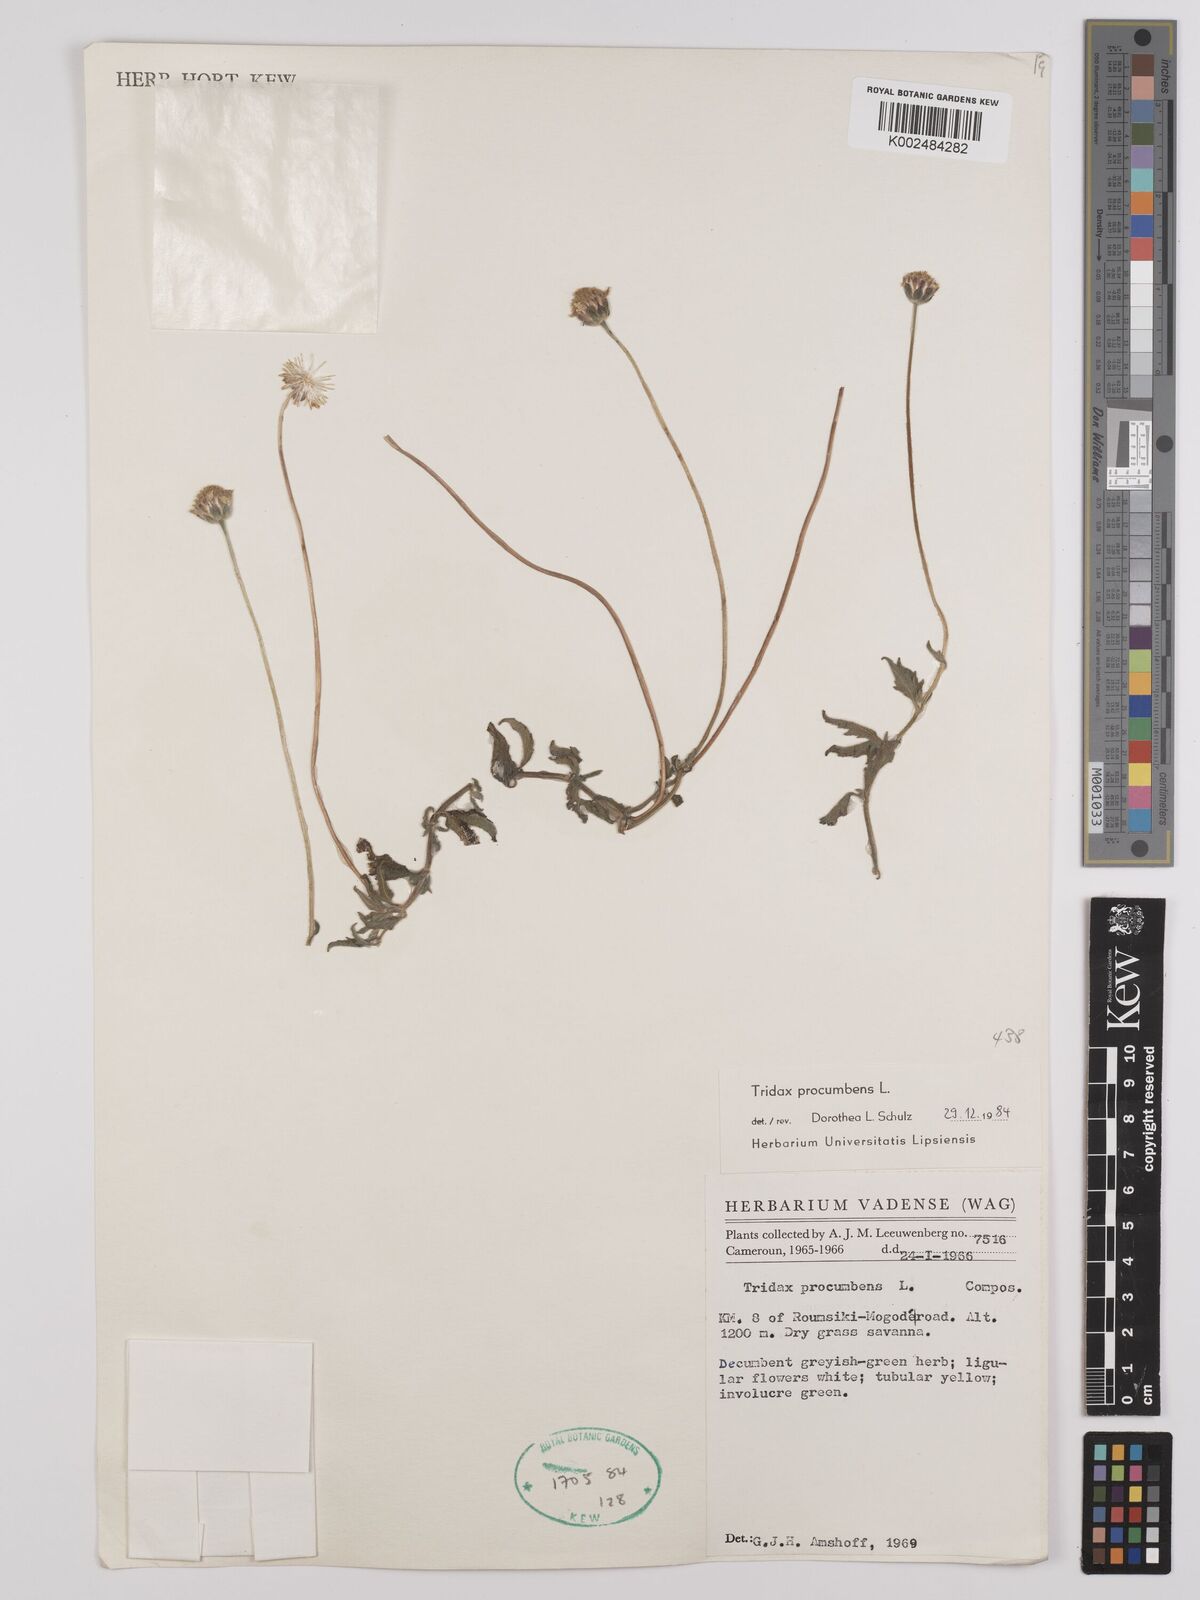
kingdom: Plantae
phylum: Tracheophyta
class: Magnoliopsida
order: Asterales
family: Asteraceae
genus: Tridax
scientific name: Tridax procumbens
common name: Coatbuttons
